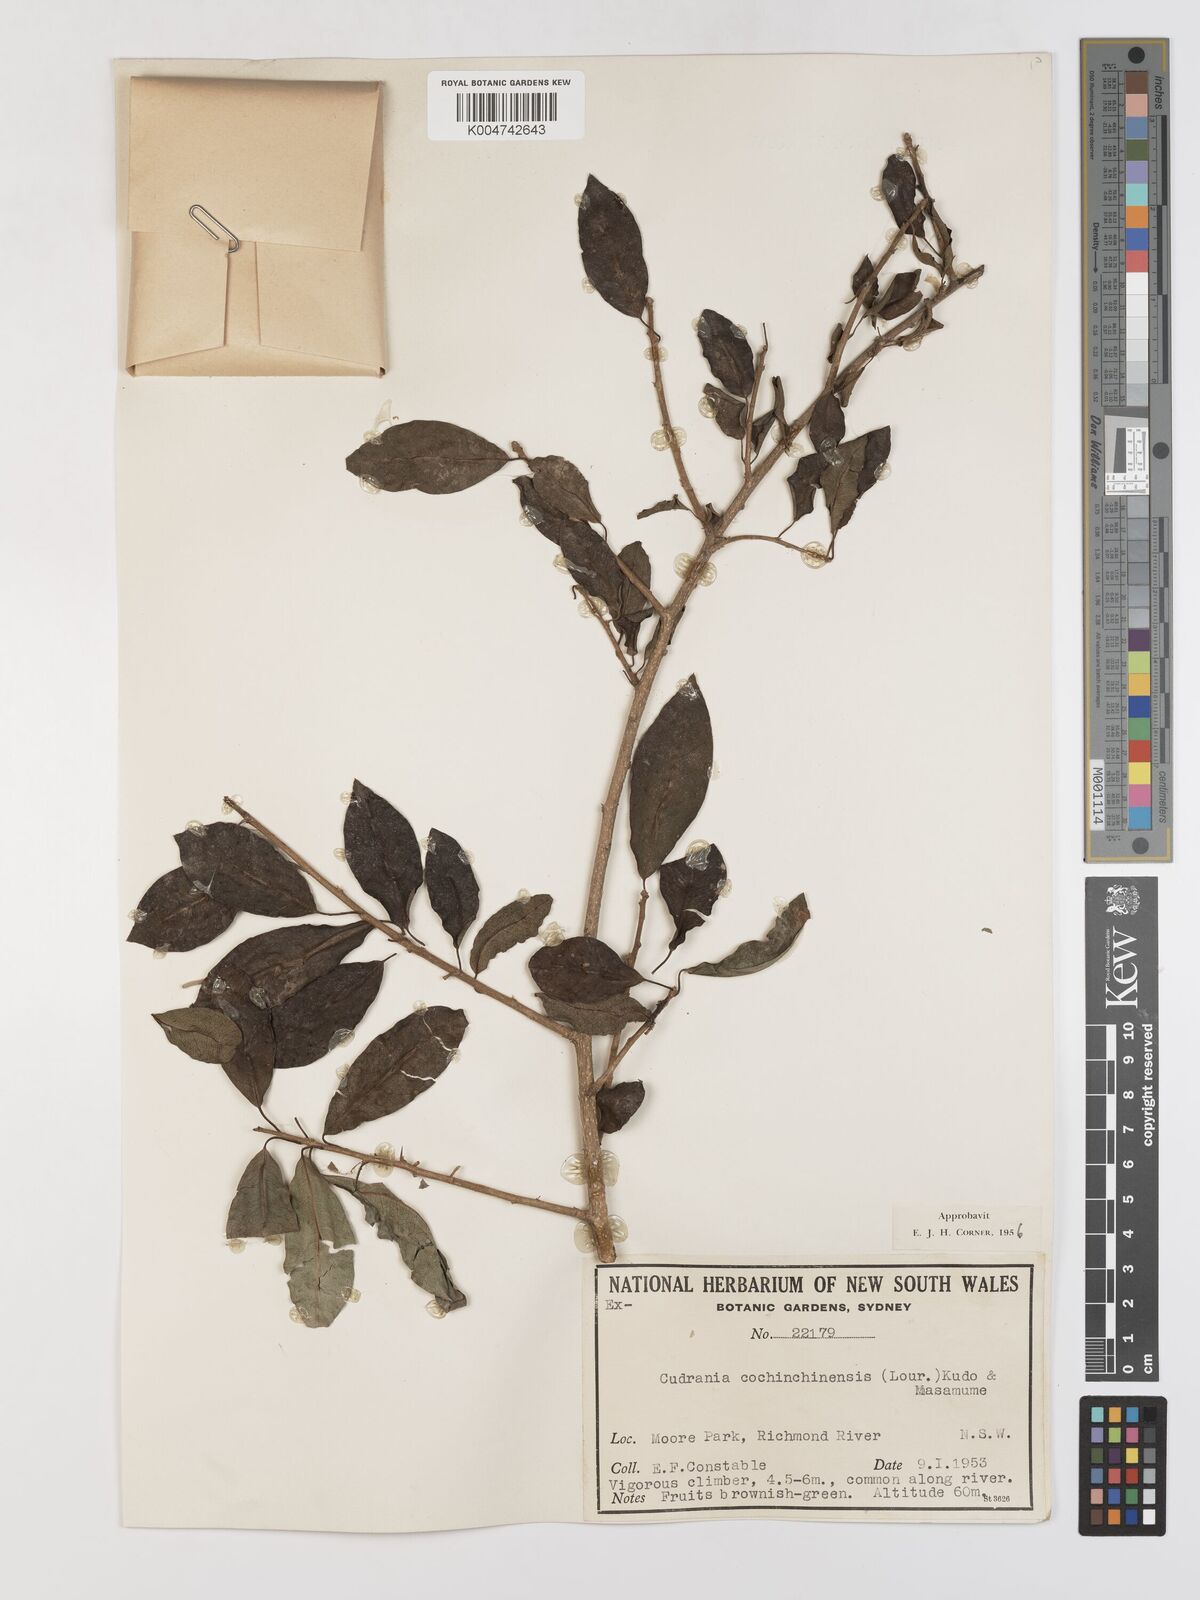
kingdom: Plantae
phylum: Tracheophyta
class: Magnoliopsida
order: Rosales
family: Moraceae
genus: Maclura
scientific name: Maclura cochinchinensis
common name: Cockspurthorn
